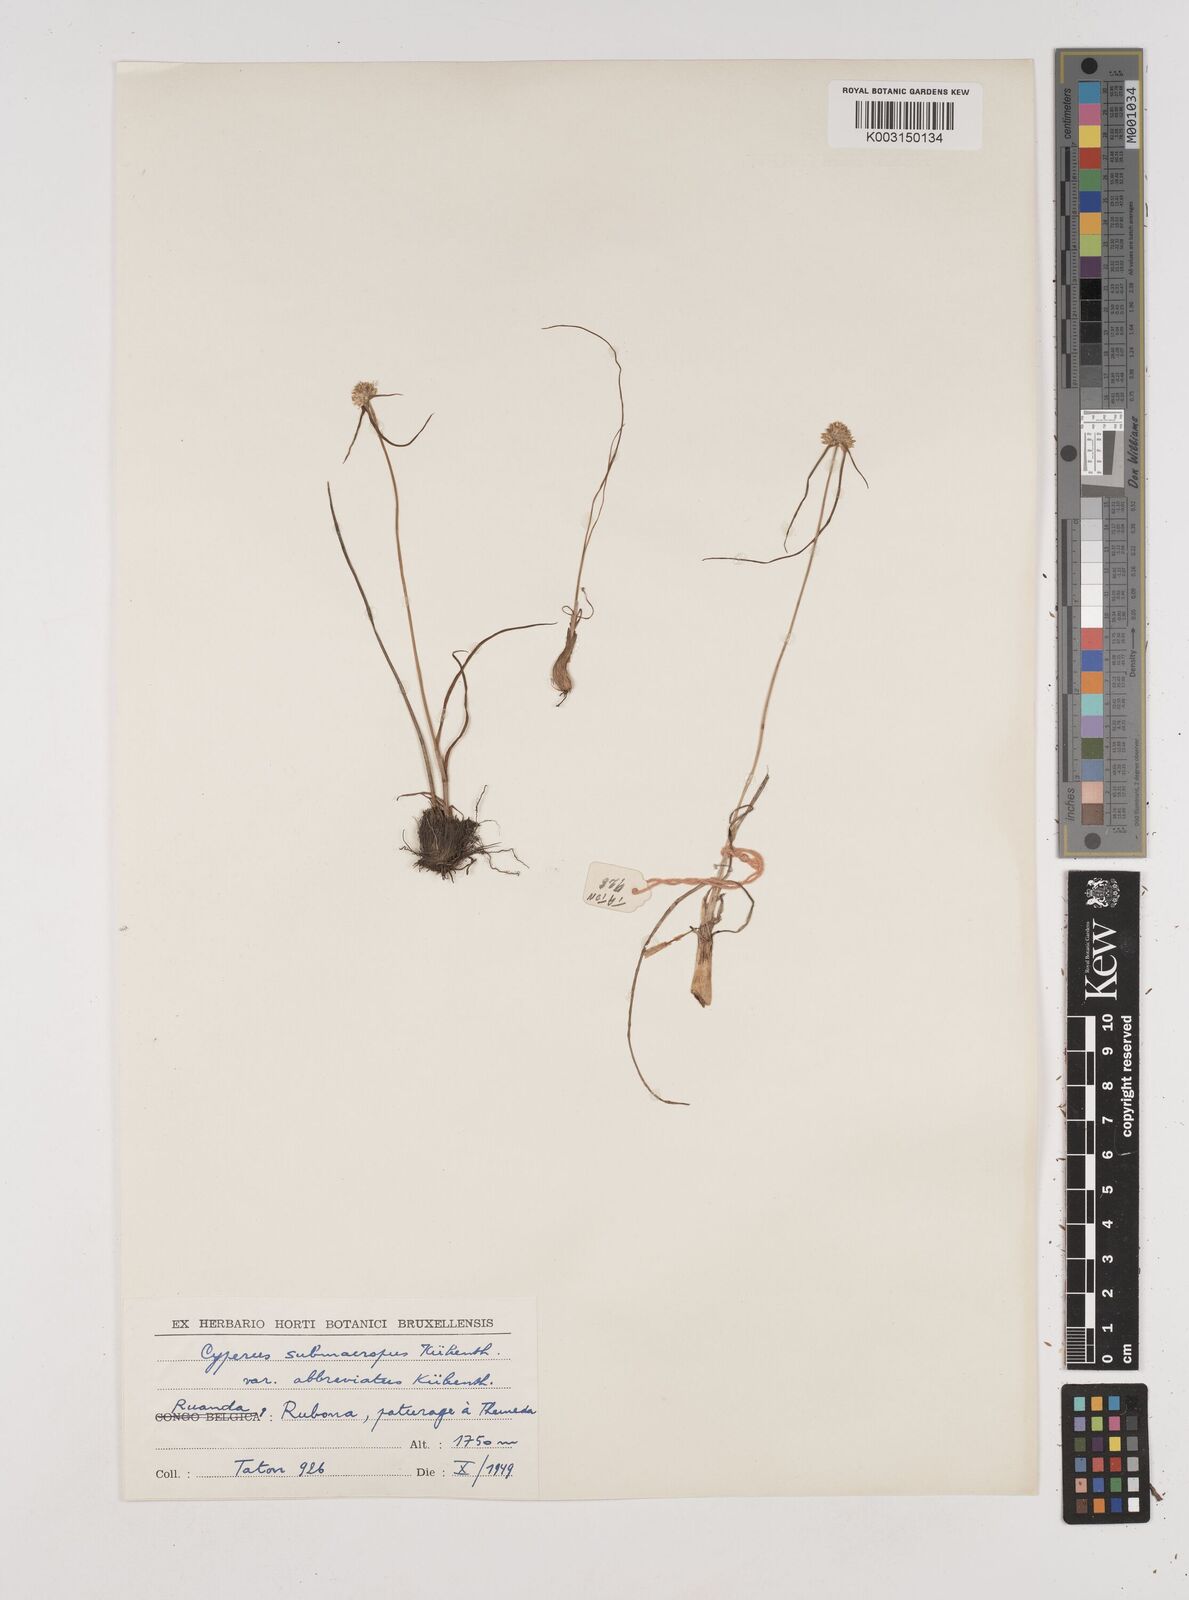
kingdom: Plantae
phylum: Tracheophyta
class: Liliopsida
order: Poales
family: Cyperaceae
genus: Cyperus
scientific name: Cyperus mollipes
